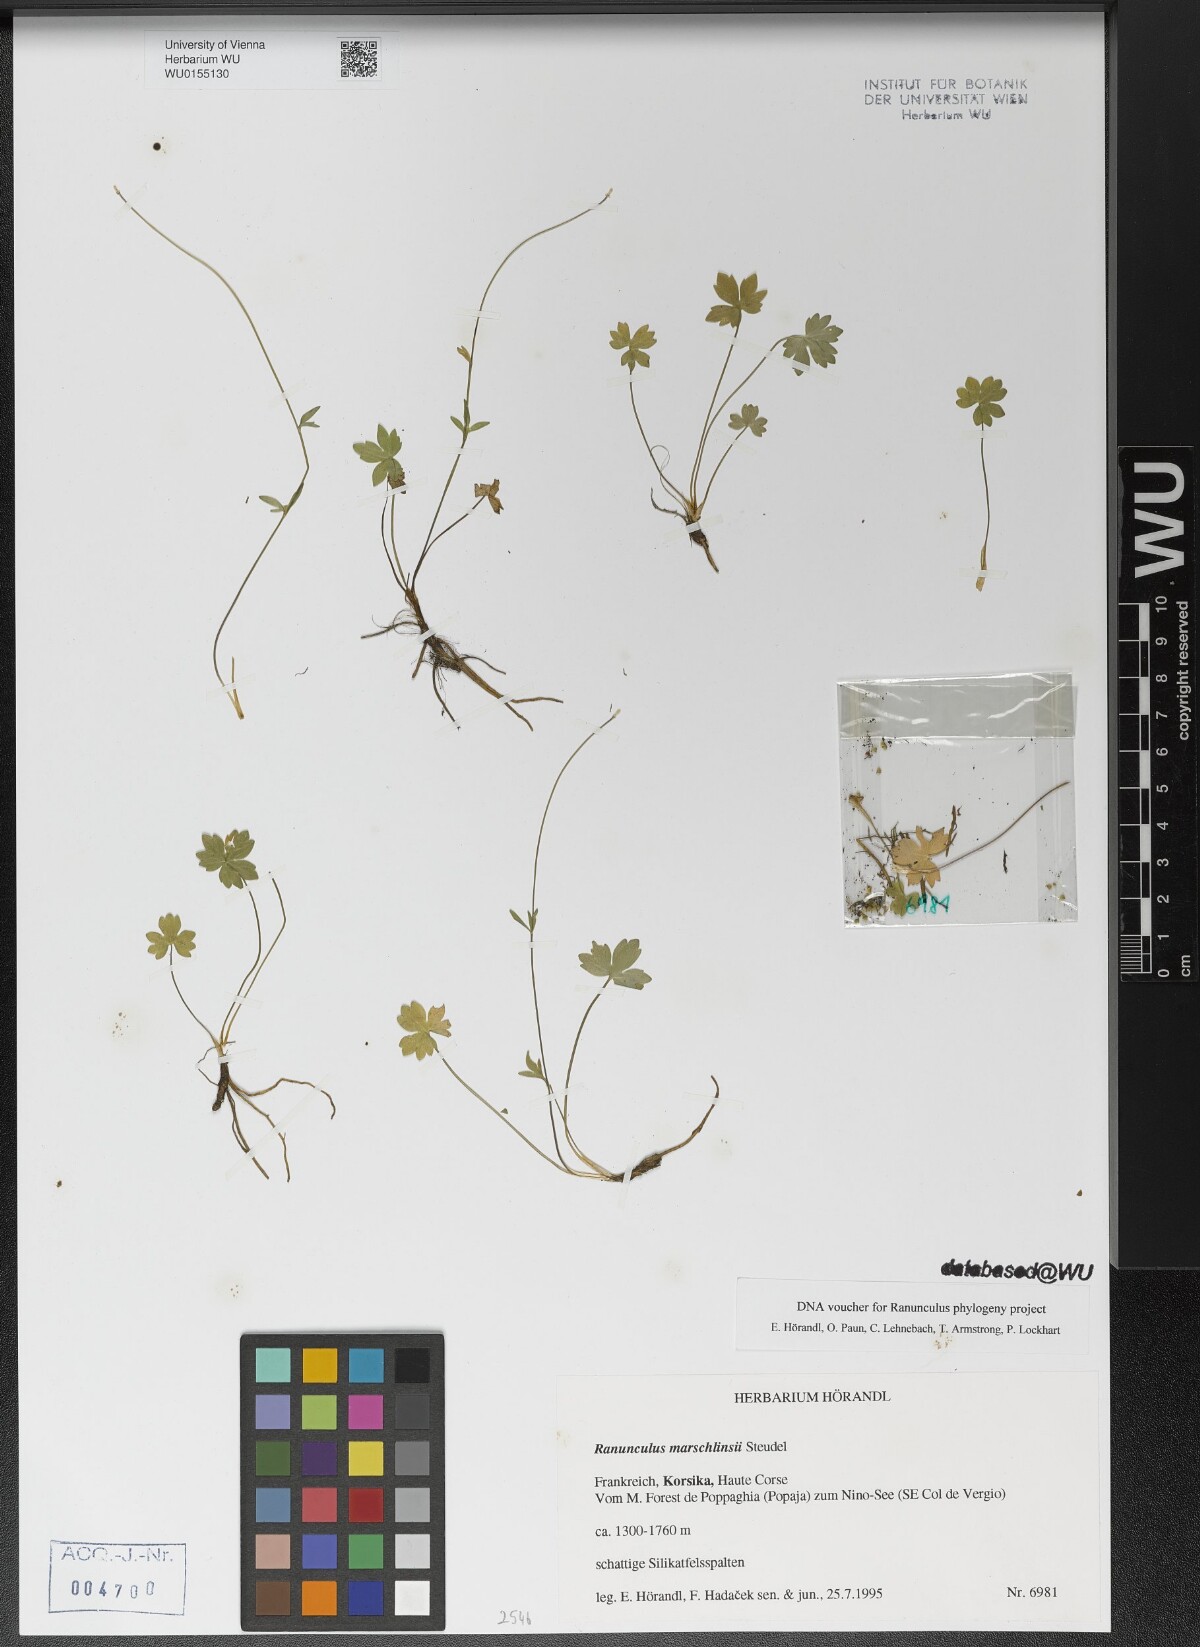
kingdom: Plantae
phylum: Tracheophyta
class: Magnoliopsida
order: Ranunculales
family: Ranunculaceae
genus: Ranunculus
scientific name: Ranunculus marschlinsii
